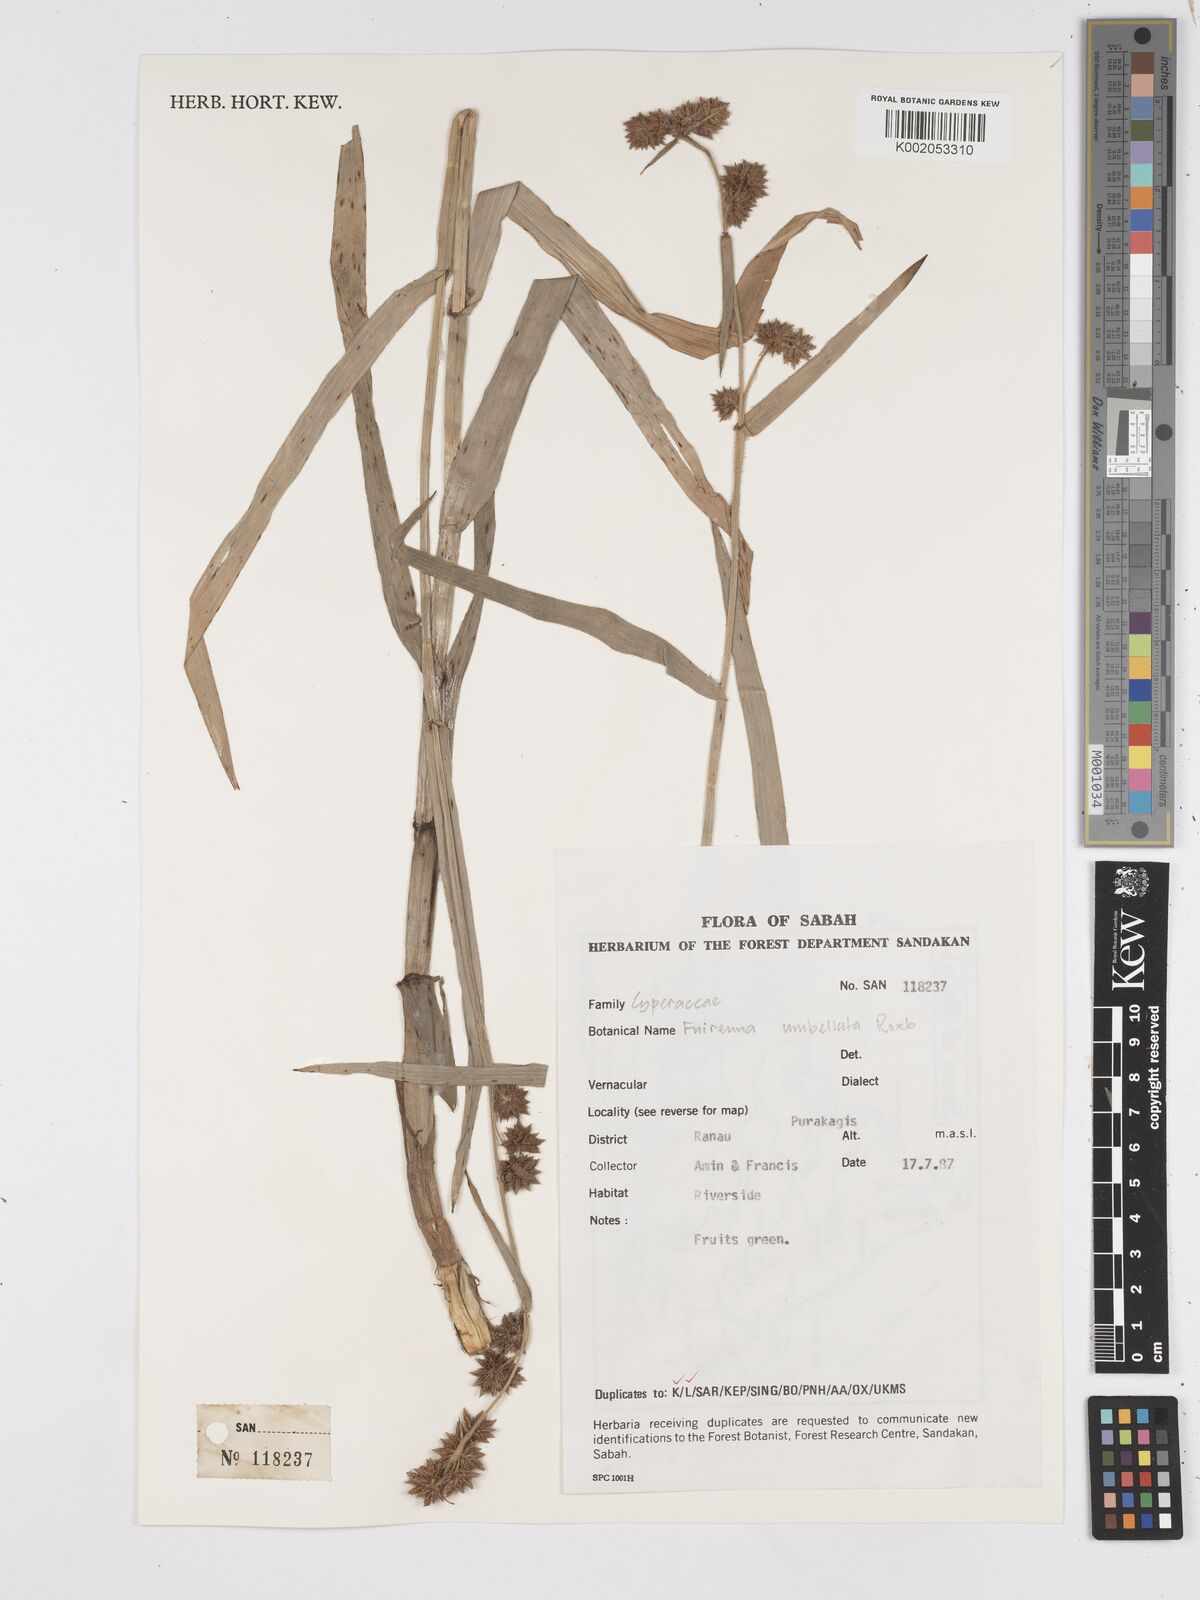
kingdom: Plantae
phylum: Tracheophyta
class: Liliopsida
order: Poales
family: Cyperaceae
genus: Fuirena
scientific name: Fuirena umbellata
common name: Yefen
